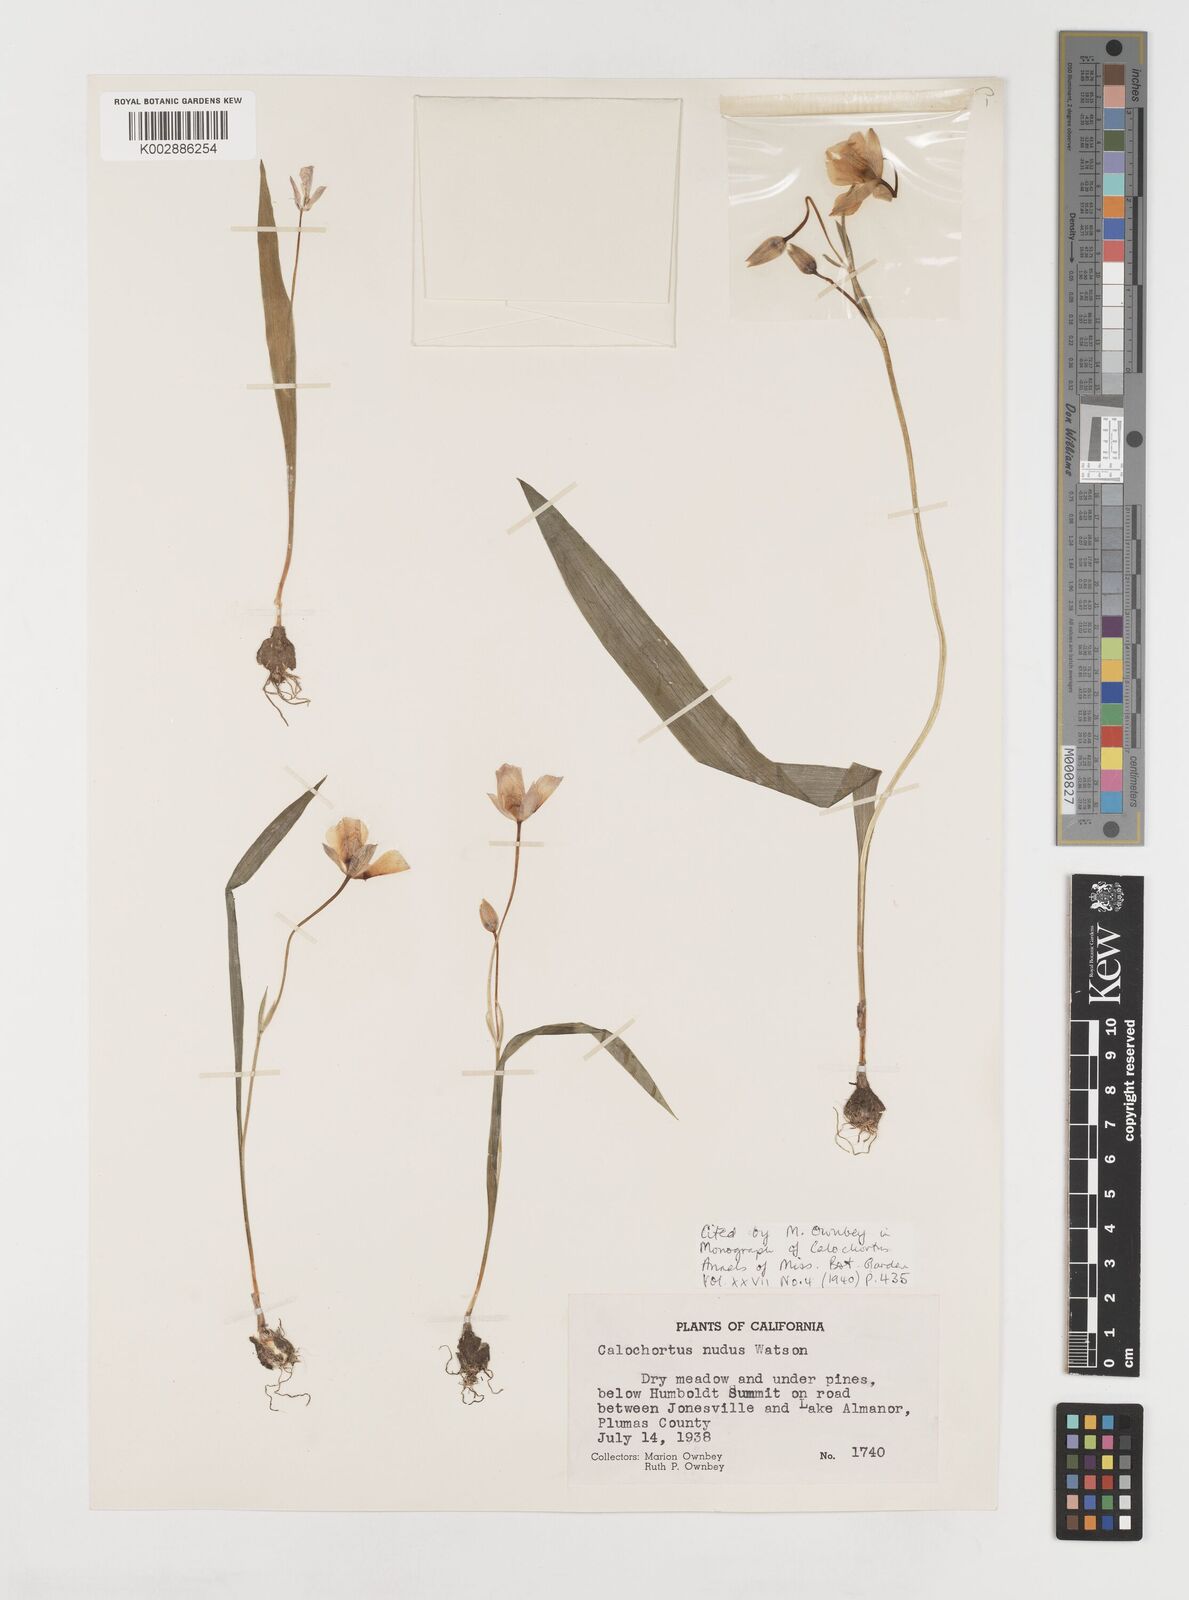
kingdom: Plantae
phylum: Tracheophyta
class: Liliopsida
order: Liliales
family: Liliaceae
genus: Calochortus
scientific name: Calochortus nudus
